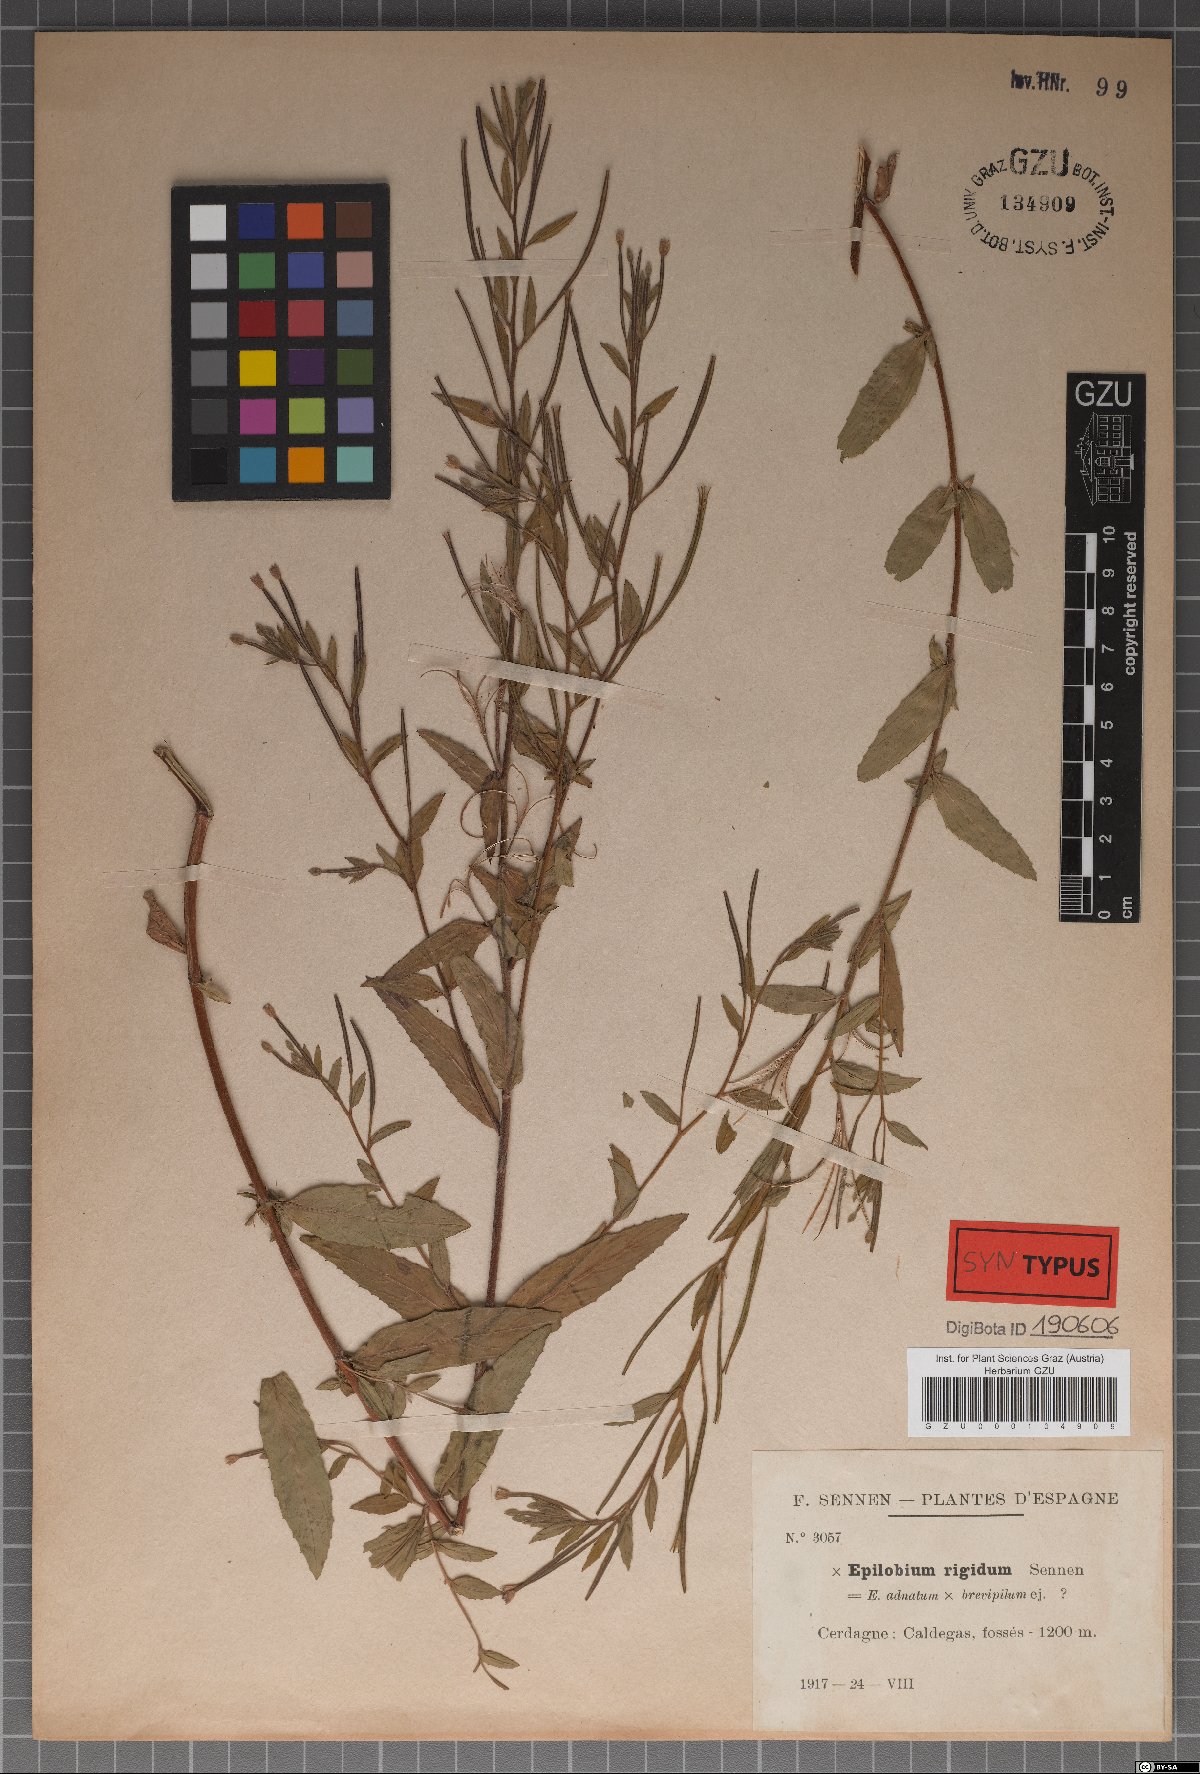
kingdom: Plantae
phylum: Tracheophyta
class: Magnoliopsida
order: Myrtales
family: Onagraceae
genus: Epilobium
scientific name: Epilobium rigidum
